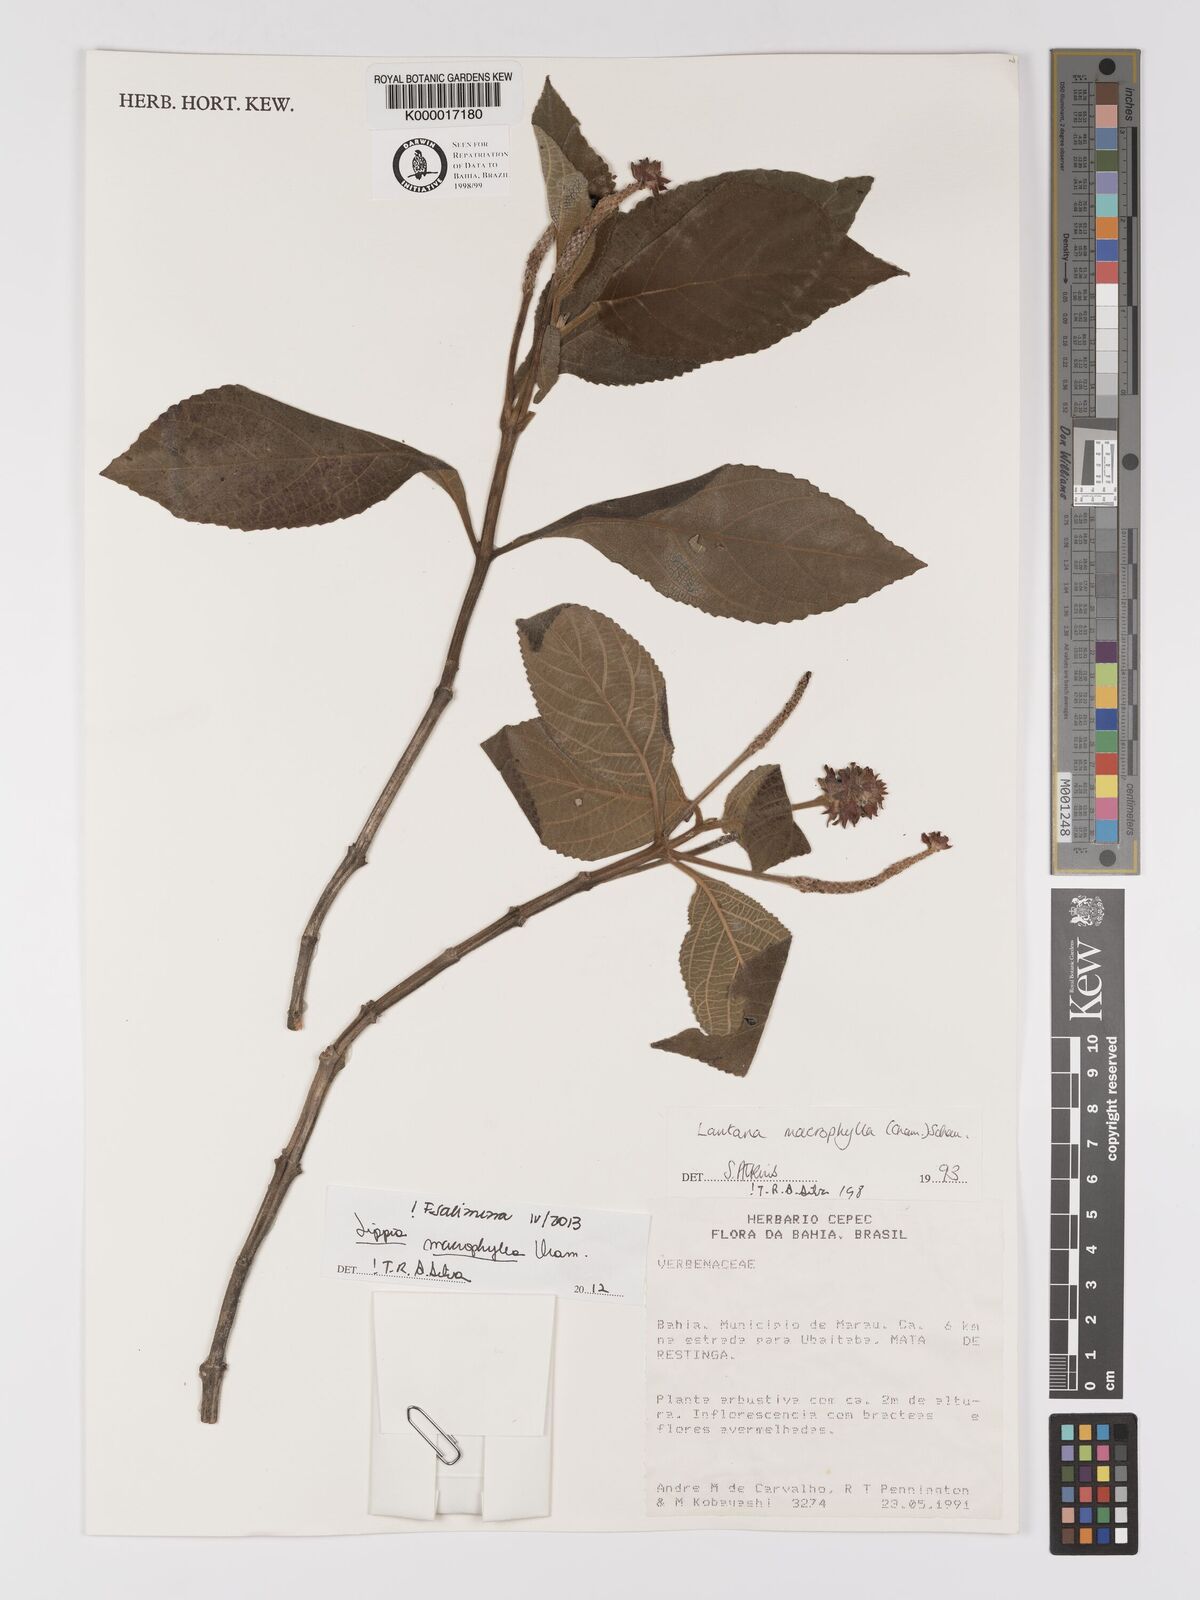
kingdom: Plantae
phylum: Tracheophyta
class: Magnoliopsida
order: Lamiales
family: Verbenaceae
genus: Lippia
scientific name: Lippia macrophylla
